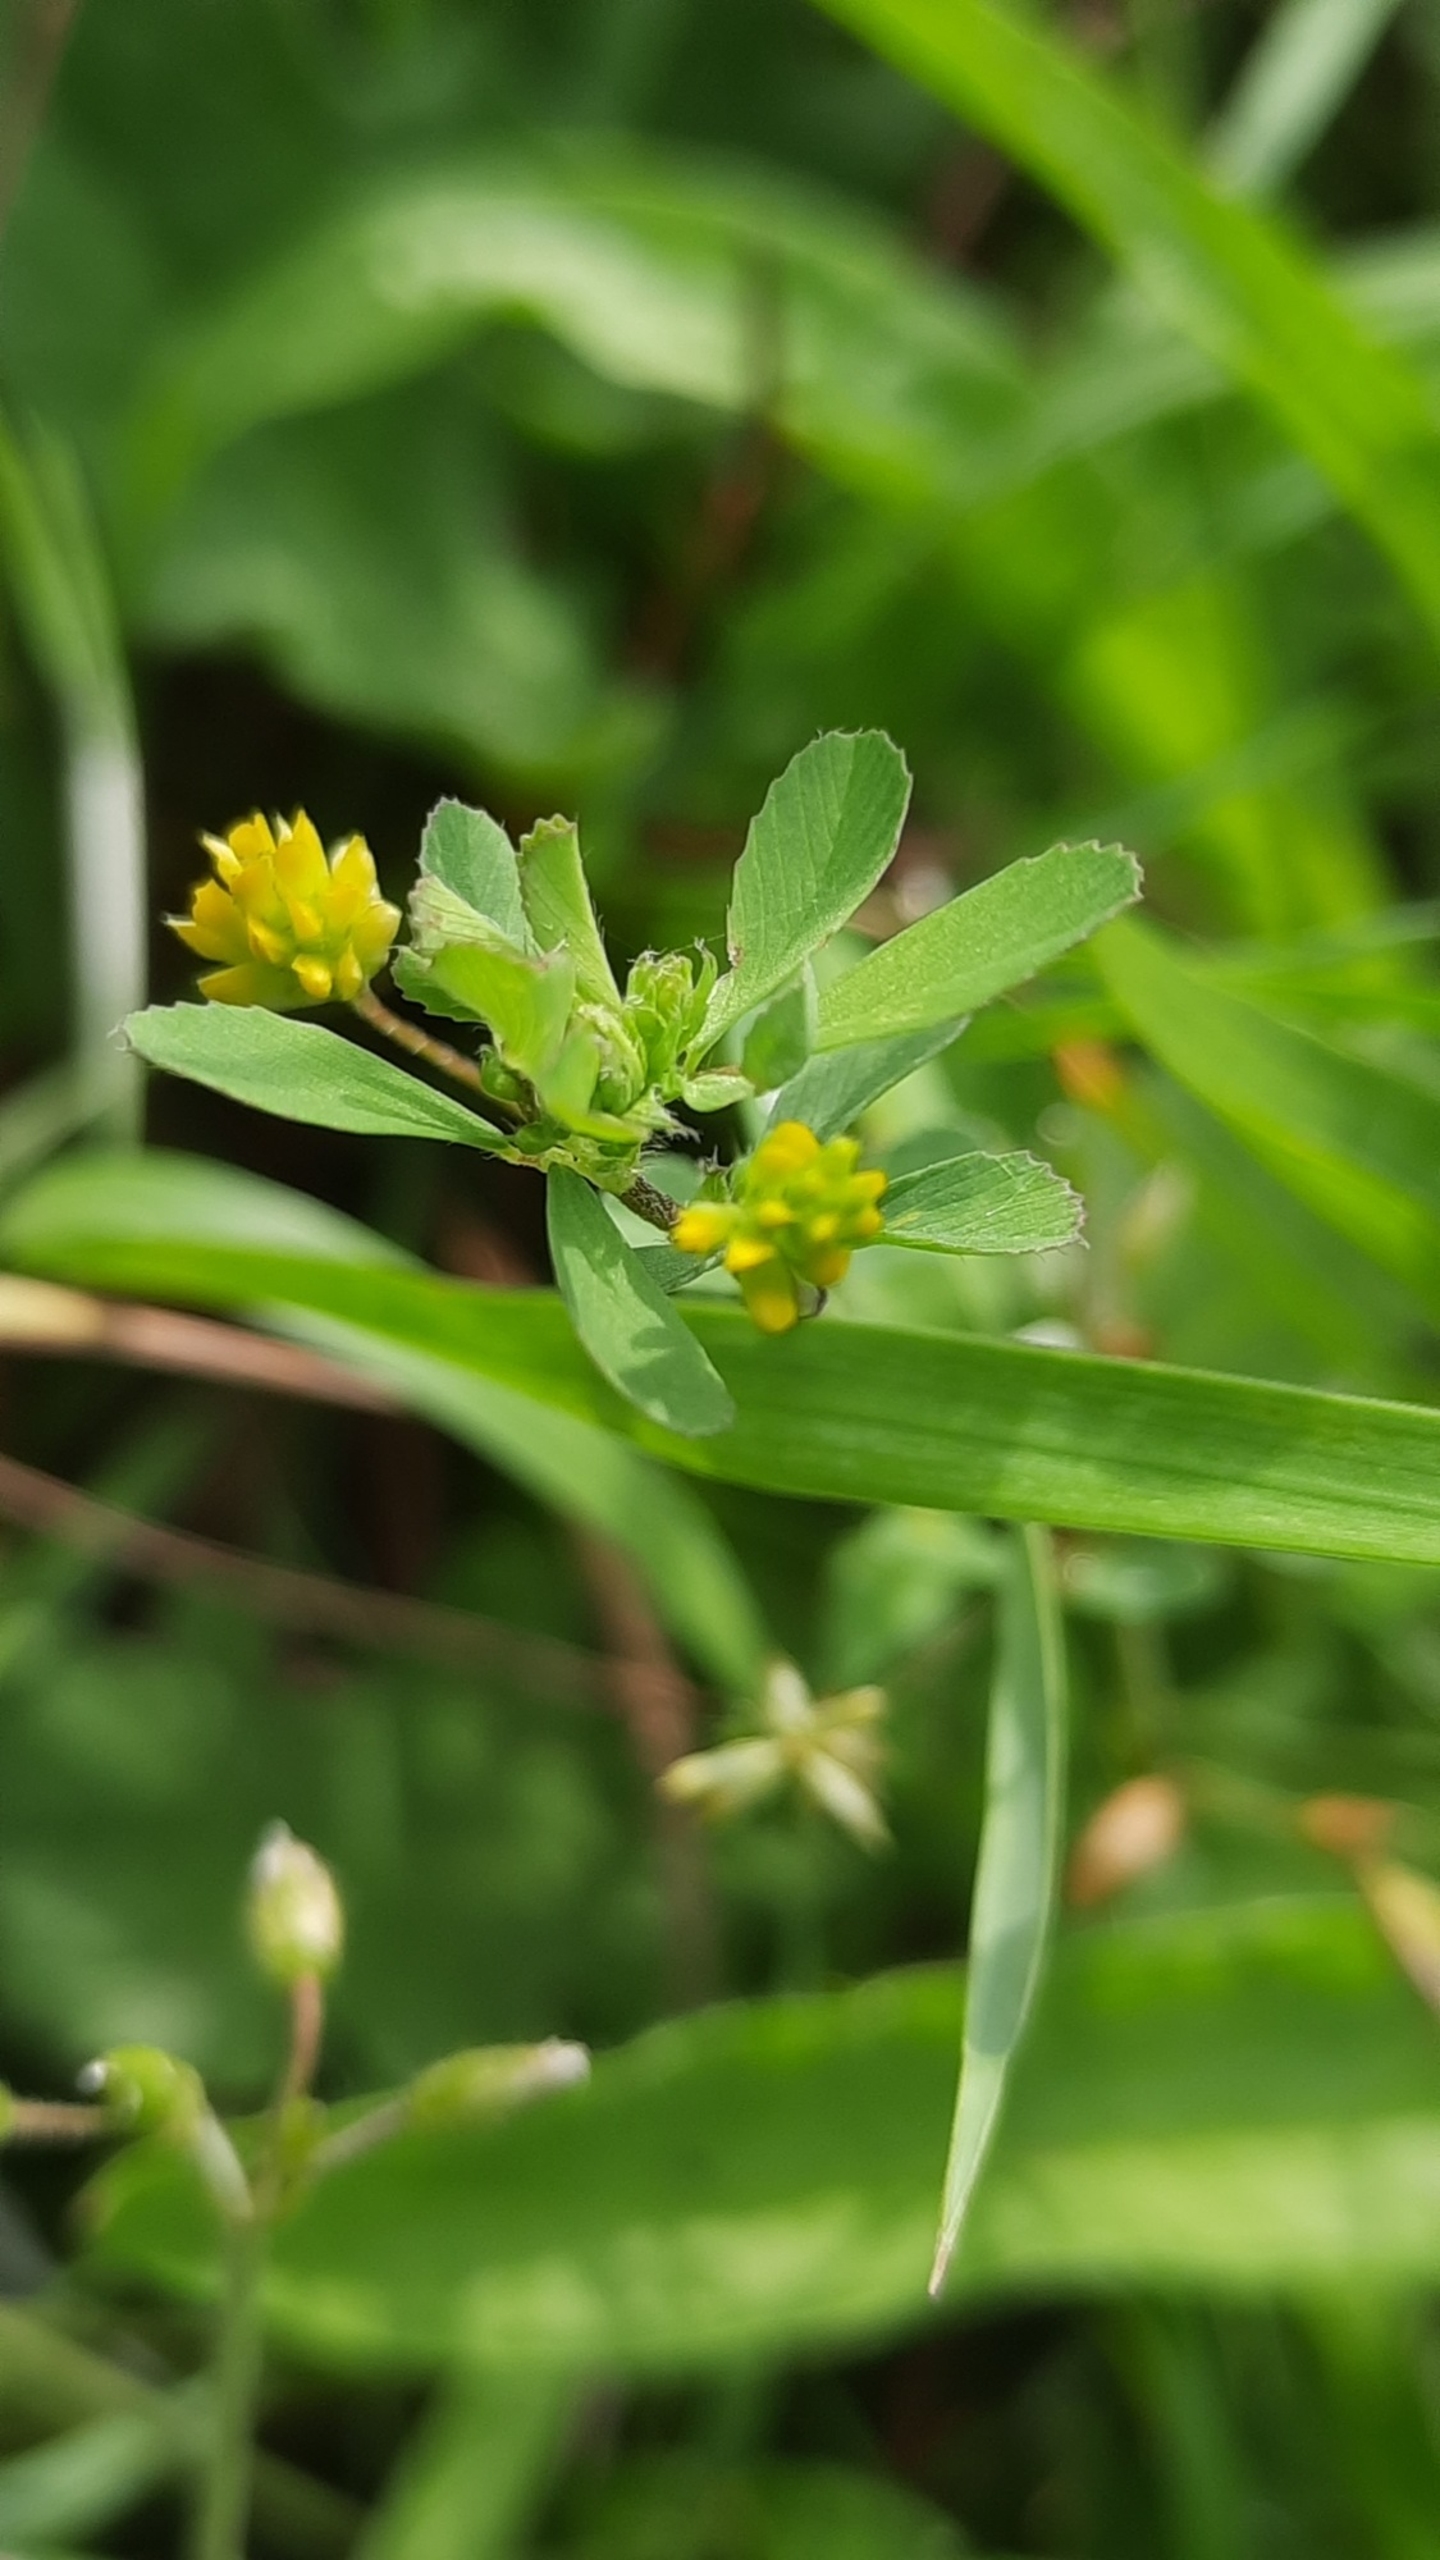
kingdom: Plantae
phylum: Tracheophyta
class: Magnoliopsida
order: Fabales
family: Fabaceae
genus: Trifolium
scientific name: Trifolium dubium
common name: Fin kløver
